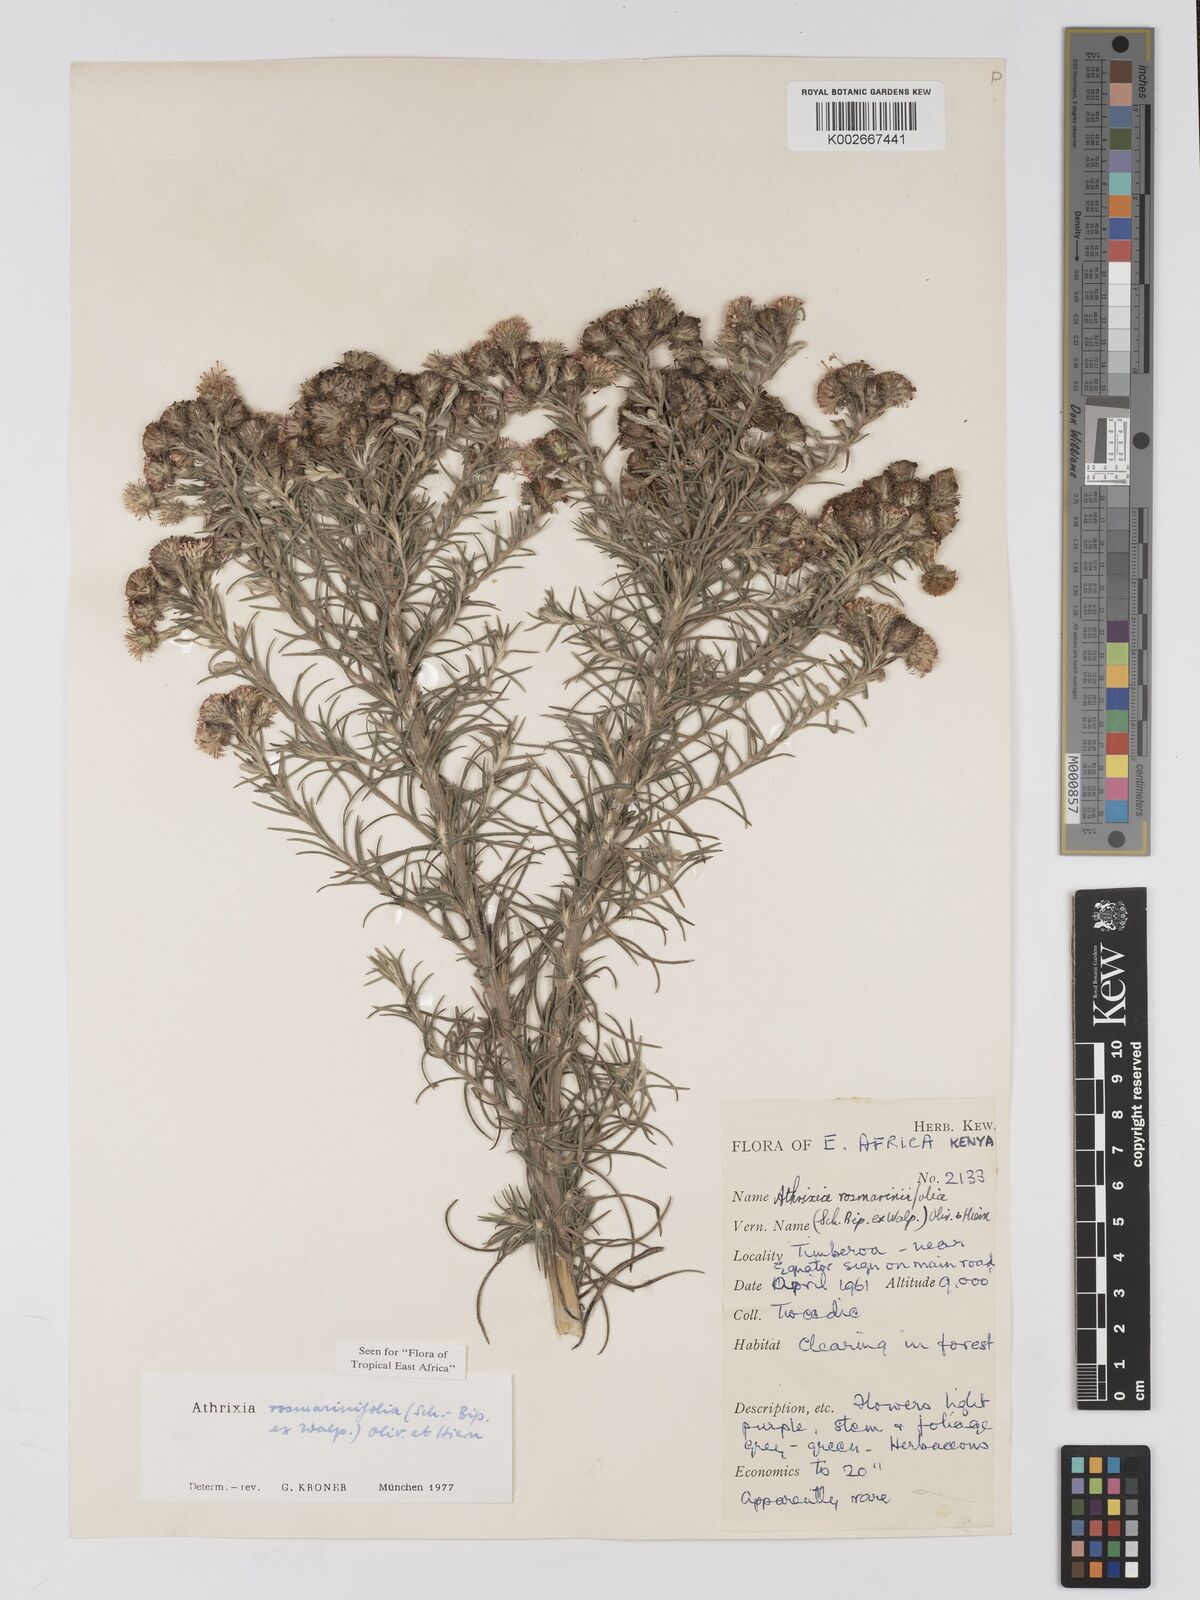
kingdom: Plantae
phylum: Tracheophyta
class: Magnoliopsida
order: Asterales
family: Asteraceae
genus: Athrixia
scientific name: Athrixia rosmarinifolia
